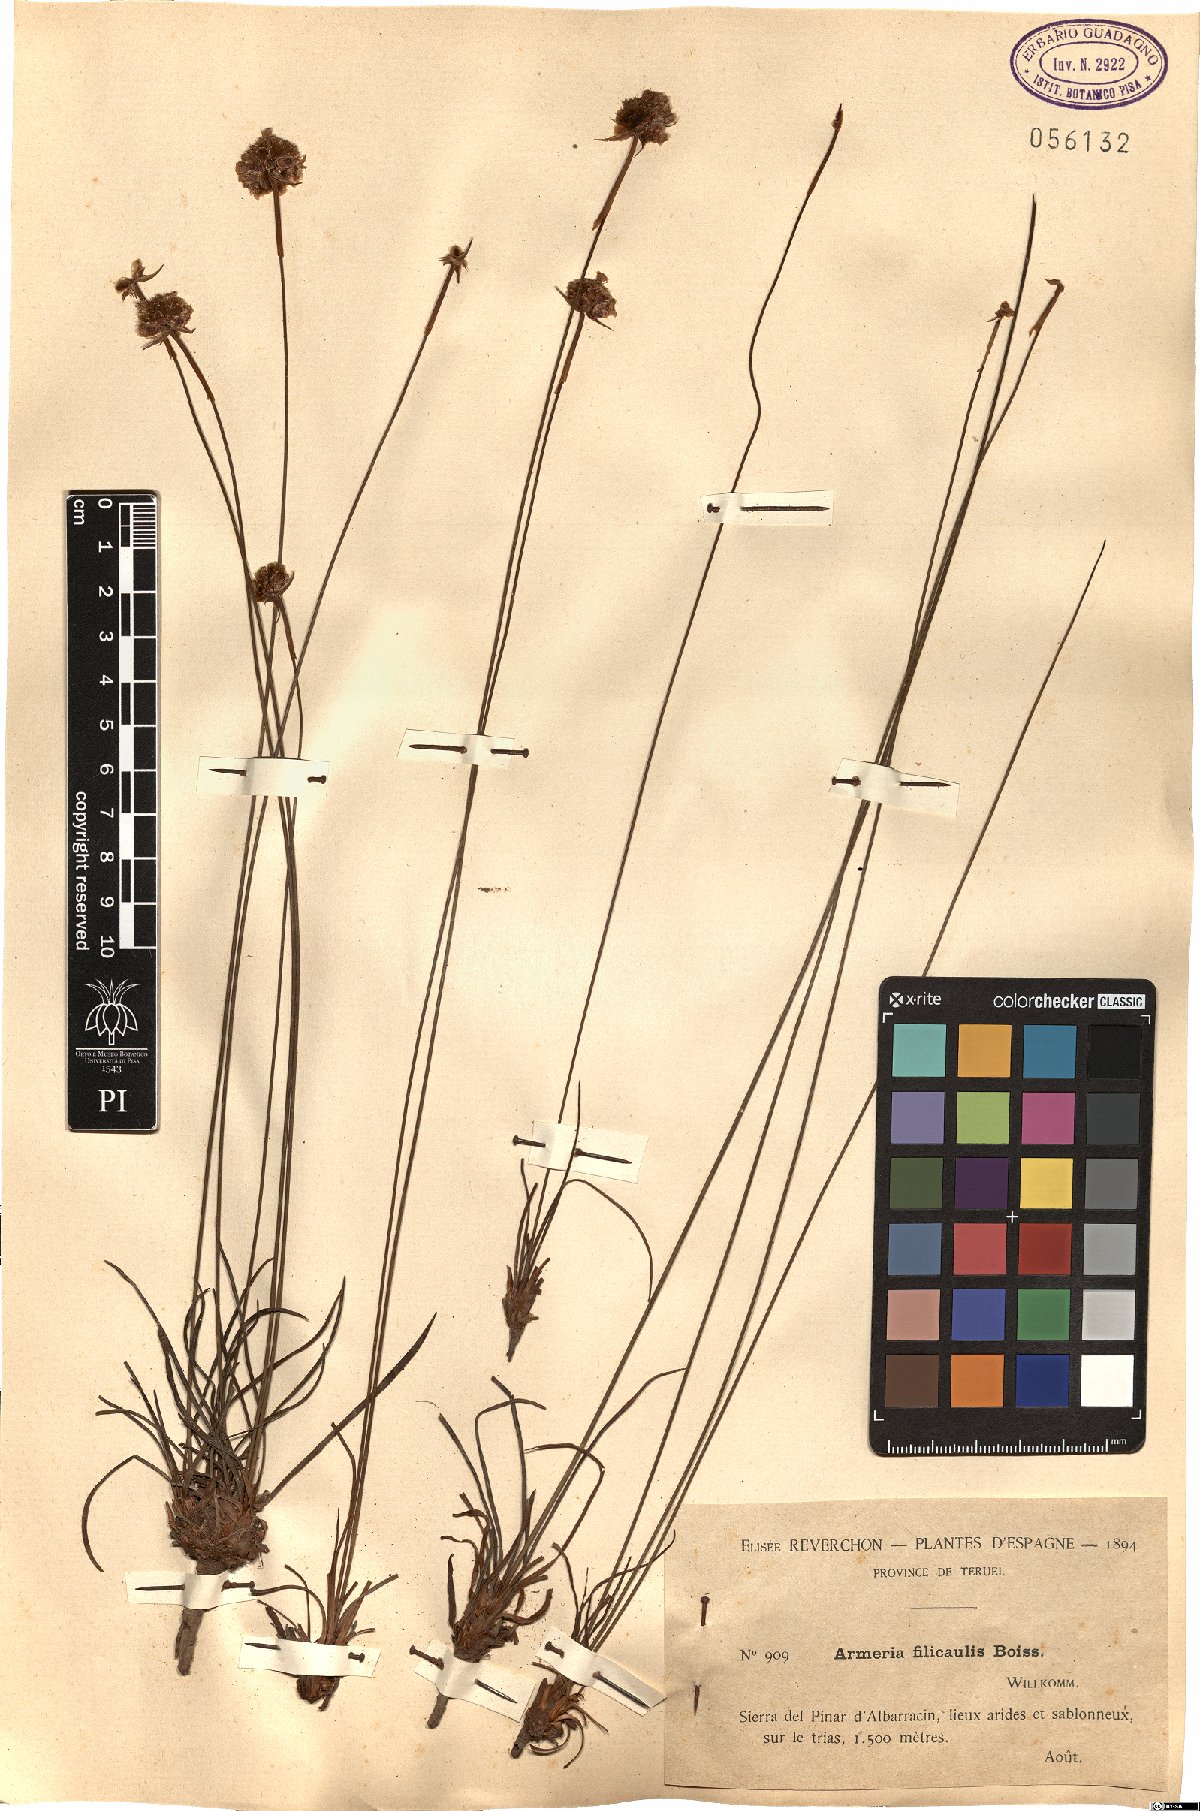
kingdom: Plantae
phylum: Tracheophyta
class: Magnoliopsida
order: Caryophyllales
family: Plumbaginaceae
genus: Armeria
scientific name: Armeria filicaulis
